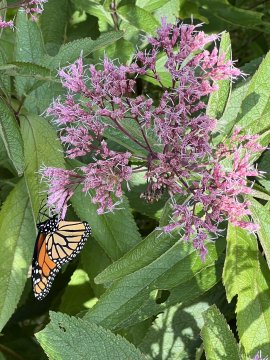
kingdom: Animalia
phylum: Arthropoda
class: Insecta
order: Lepidoptera
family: Nymphalidae
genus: Danaus
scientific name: Danaus plexippus
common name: Monarch
